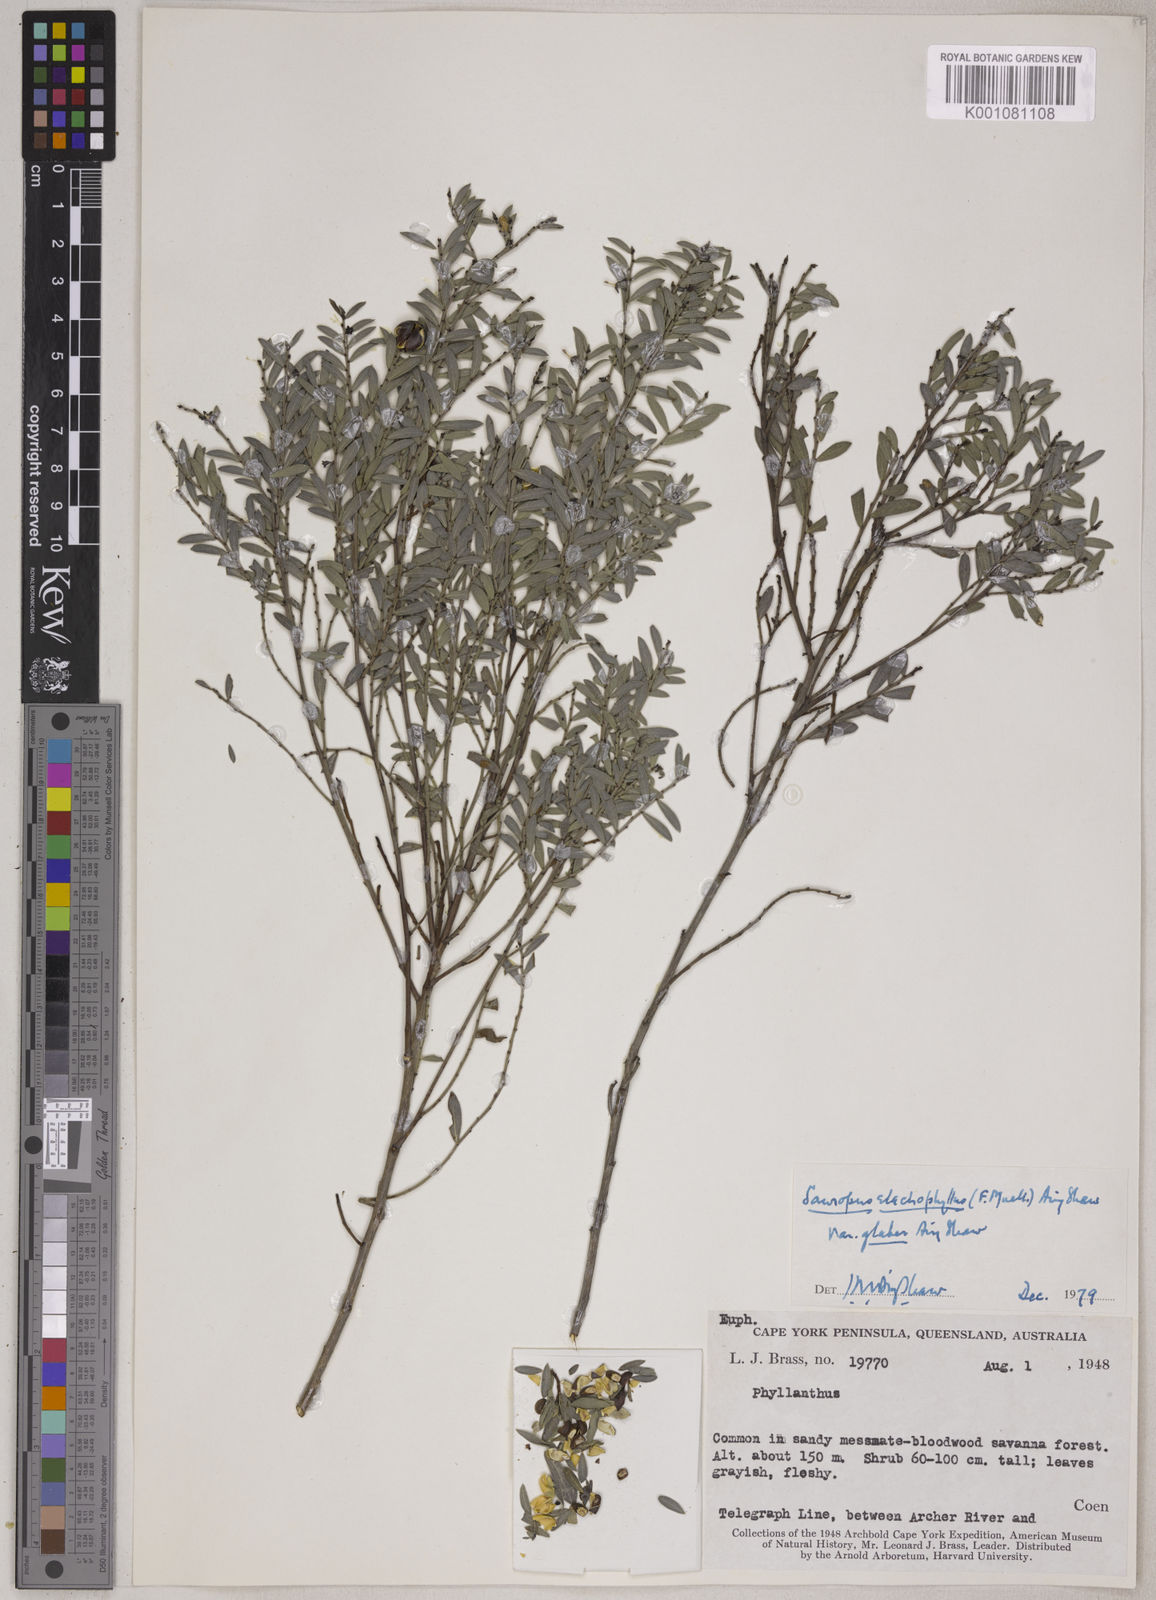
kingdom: Plantae
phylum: Tracheophyta
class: Magnoliopsida
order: Malpighiales
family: Phyllanthaceae
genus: Synostemon
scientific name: Synostemon elachophyllus
